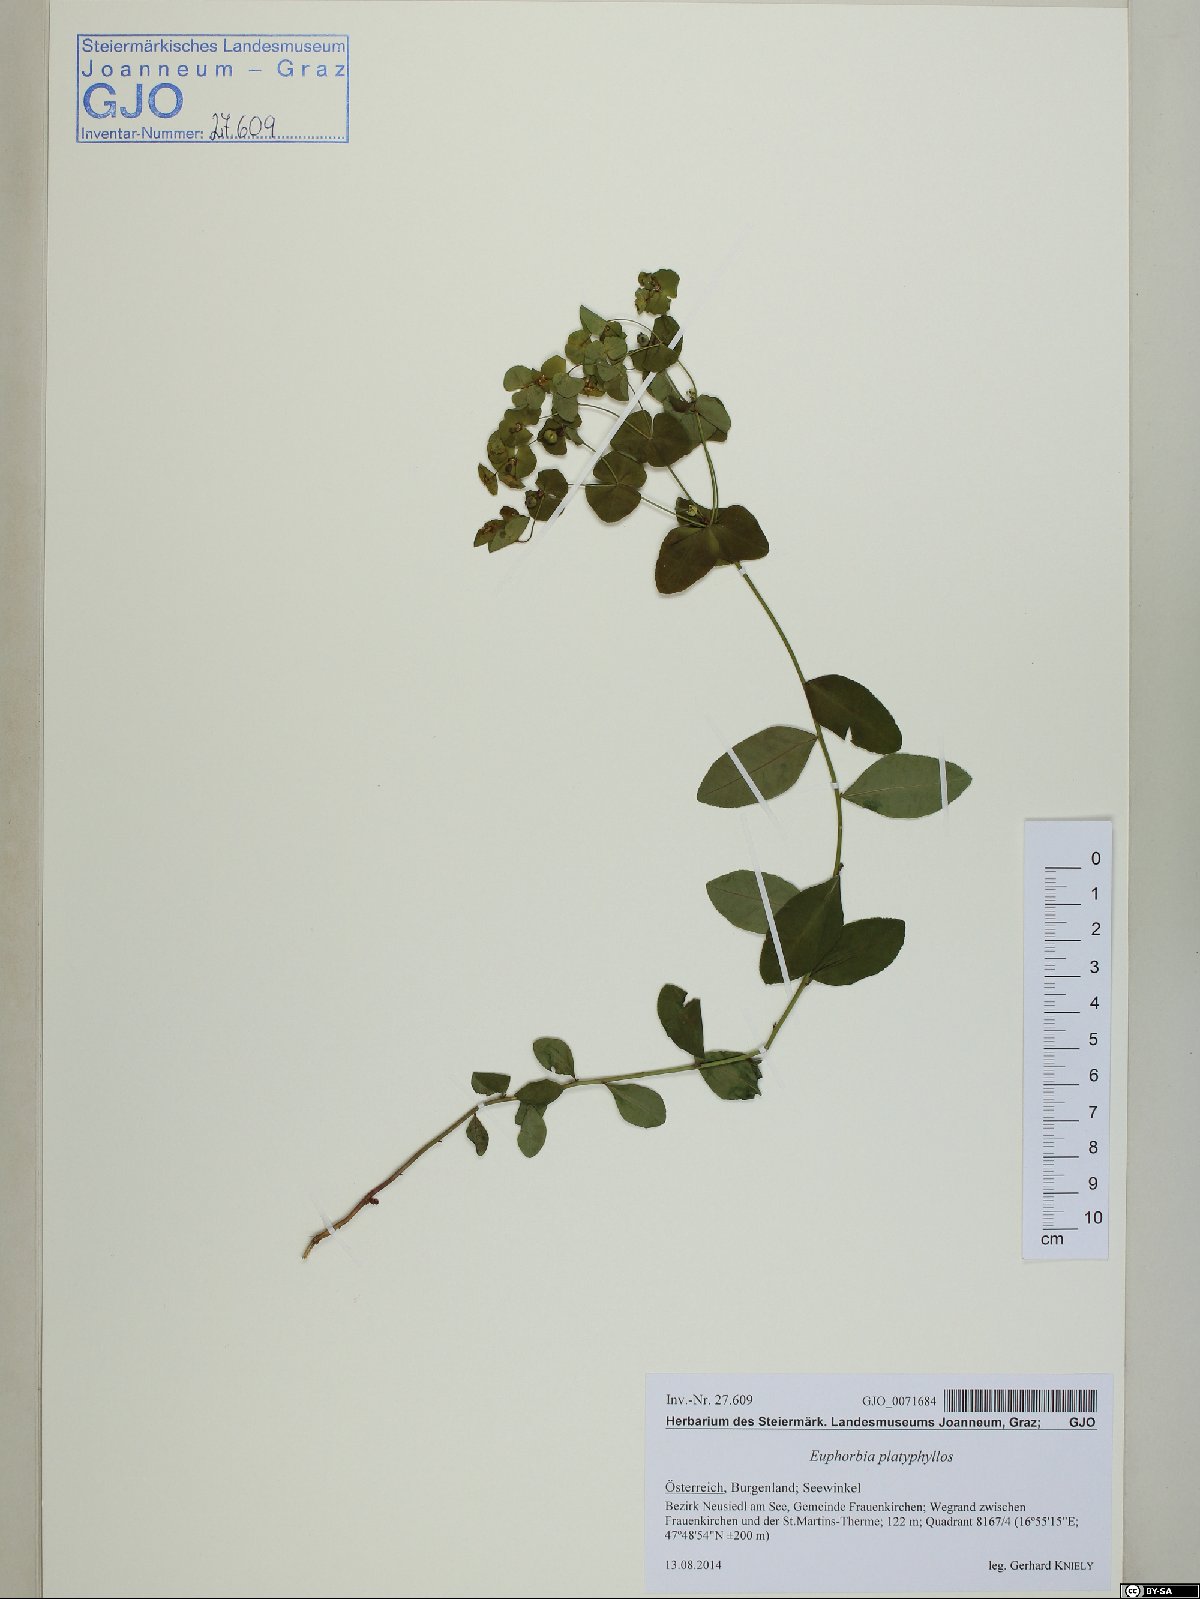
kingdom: Plantae
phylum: Tracheophyta
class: Magnoliopsida
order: Malpighiales
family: Euphorbiaceae
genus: Euphorbia
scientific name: Euphorbia platyphyllos
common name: Broad-leaved spurge
